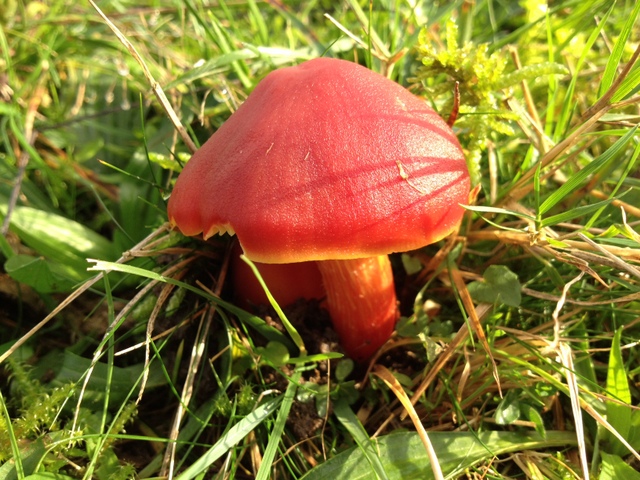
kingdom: Fungi
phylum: Basidiomycota
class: Agaricomycetes
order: Agaricales
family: Hygrophoraceae
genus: Hygrocybe
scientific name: Hygrocybe punicea
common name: skarlagen-vokshat
